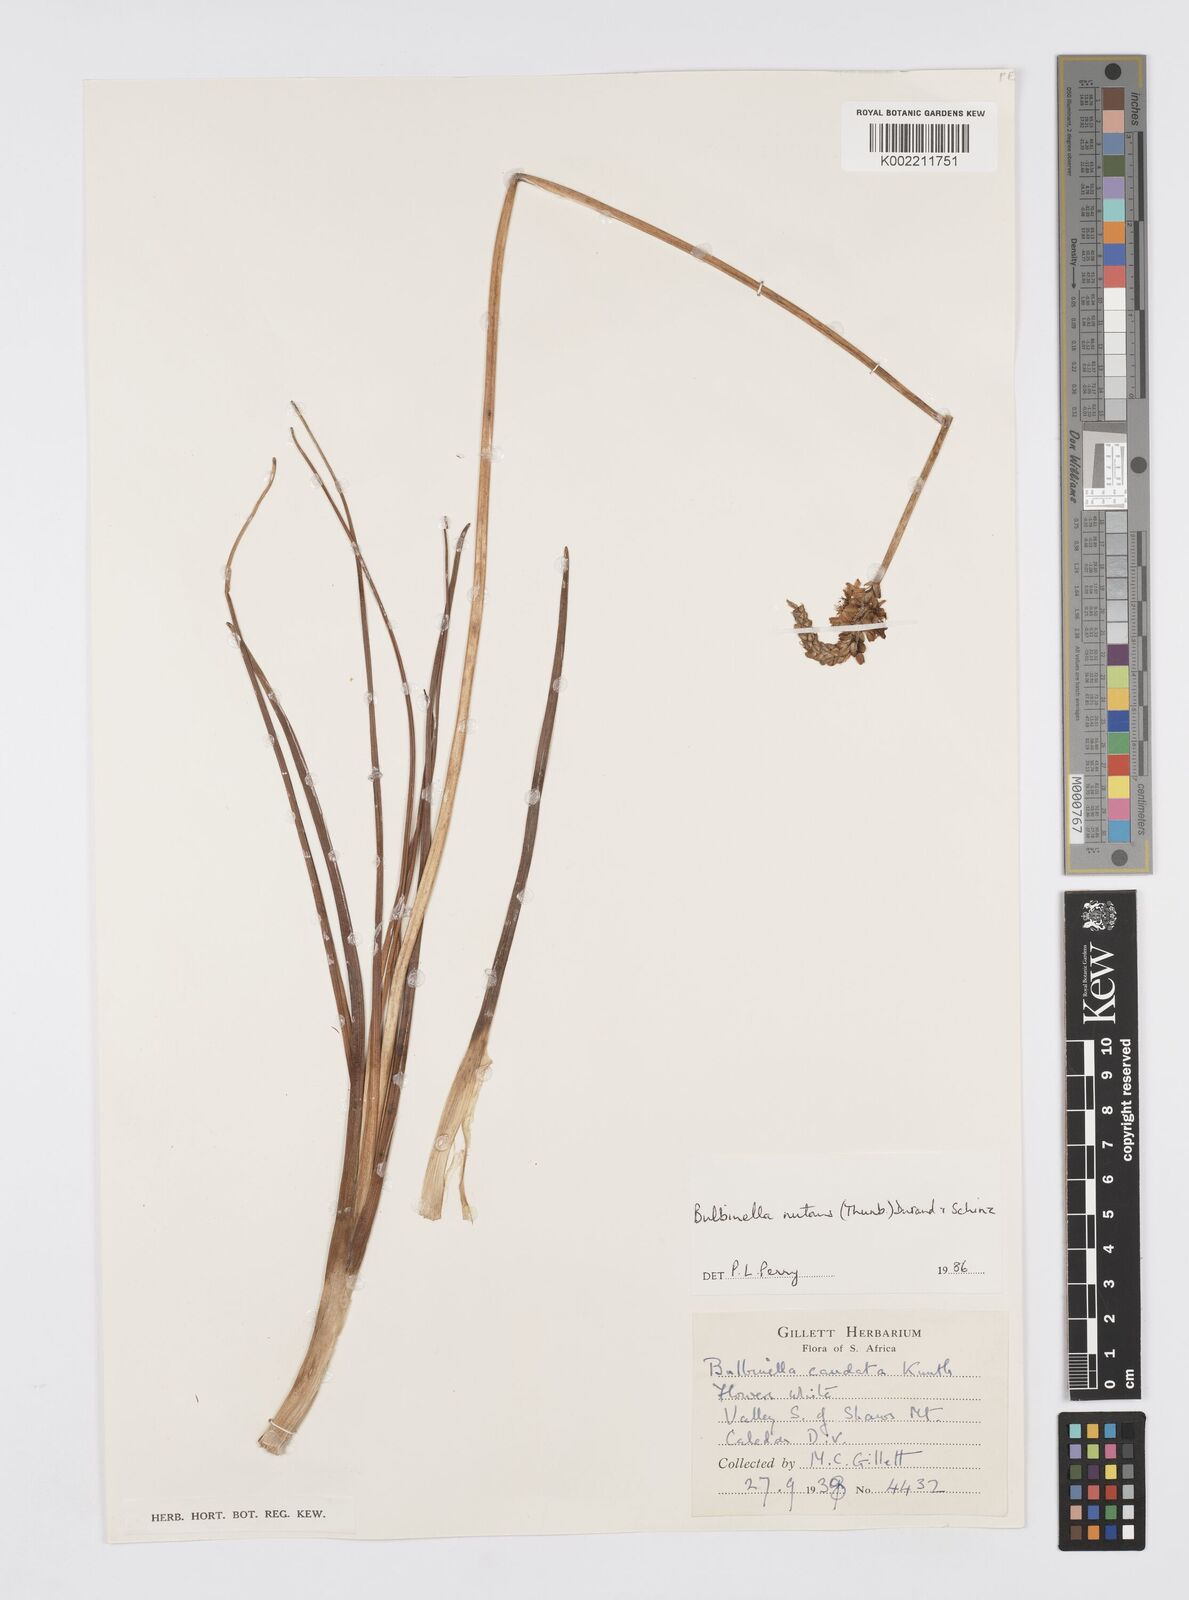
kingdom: Plantae
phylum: Tracheophyta
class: Liliopsida
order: Asparagales
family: Asphodelaceae
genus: Bulbinella
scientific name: Bulbinella nutans
